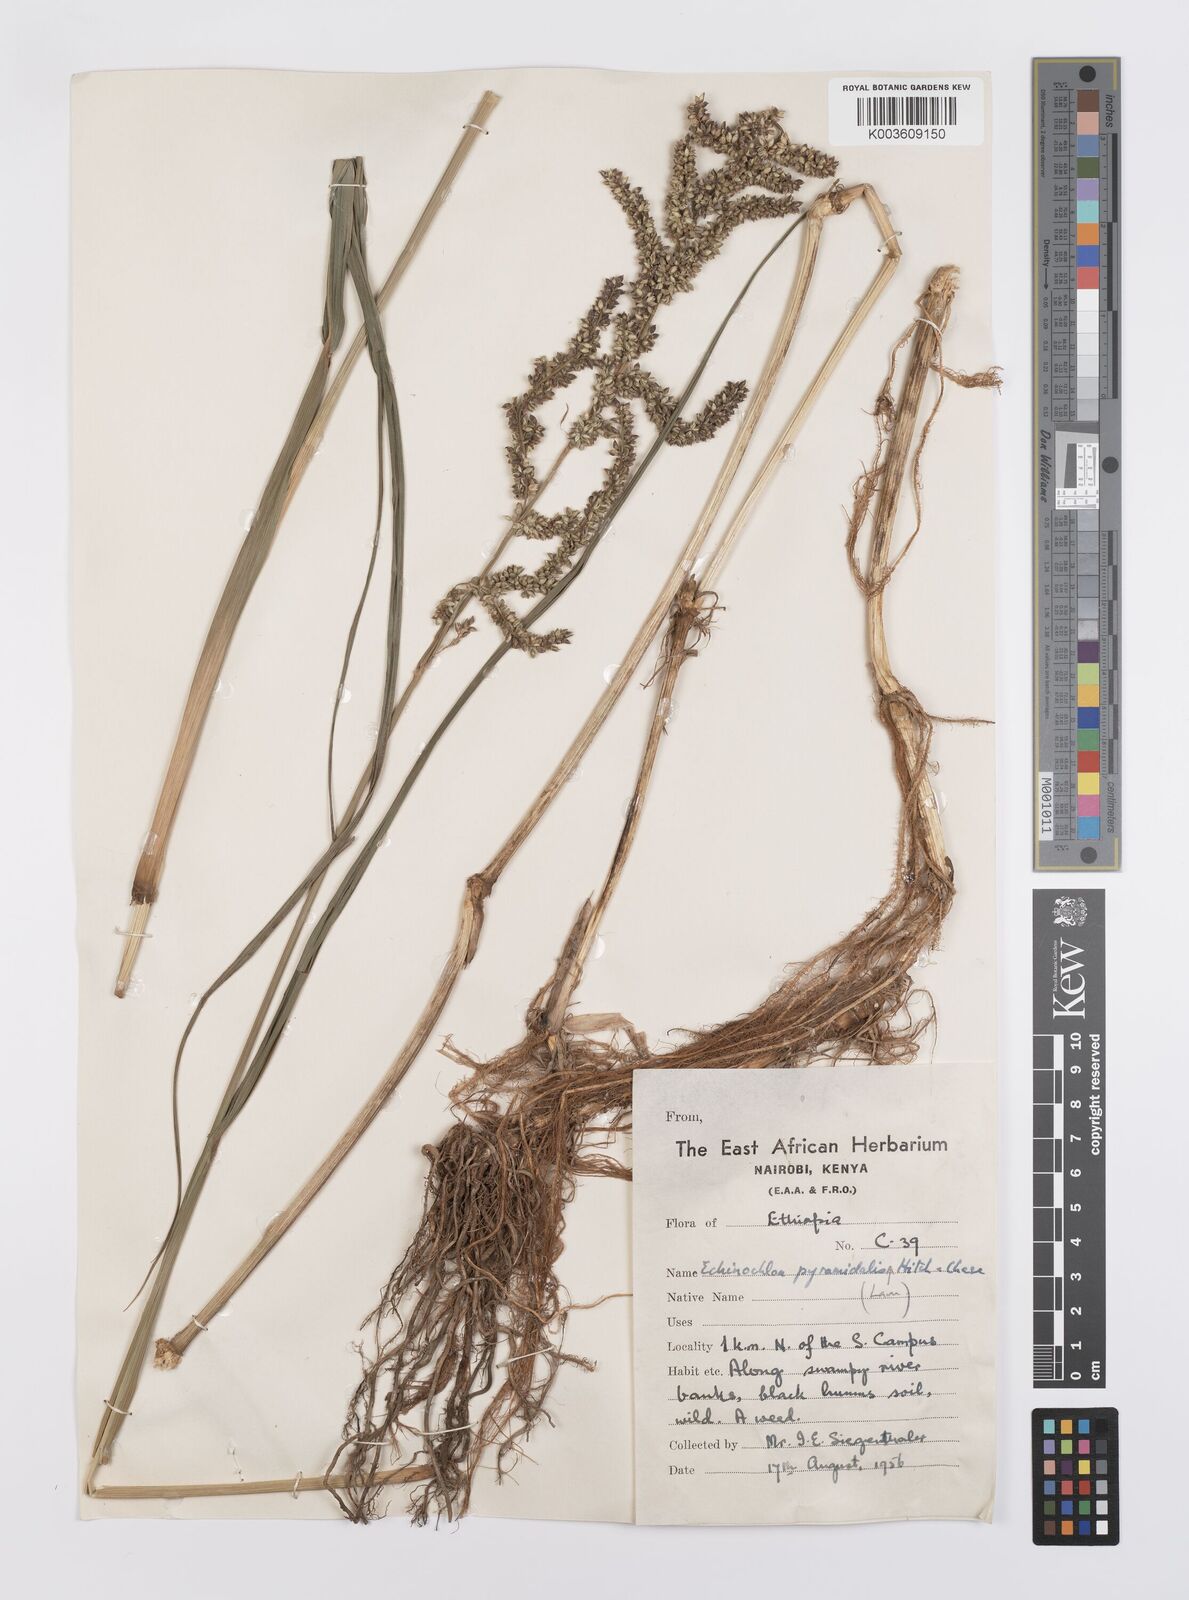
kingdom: Plantae
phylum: Tracheophyta
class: Liliopsida
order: Poales
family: Poaceae
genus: Echinochloa
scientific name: Echinochloa pyramidalis
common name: Antelope grass
